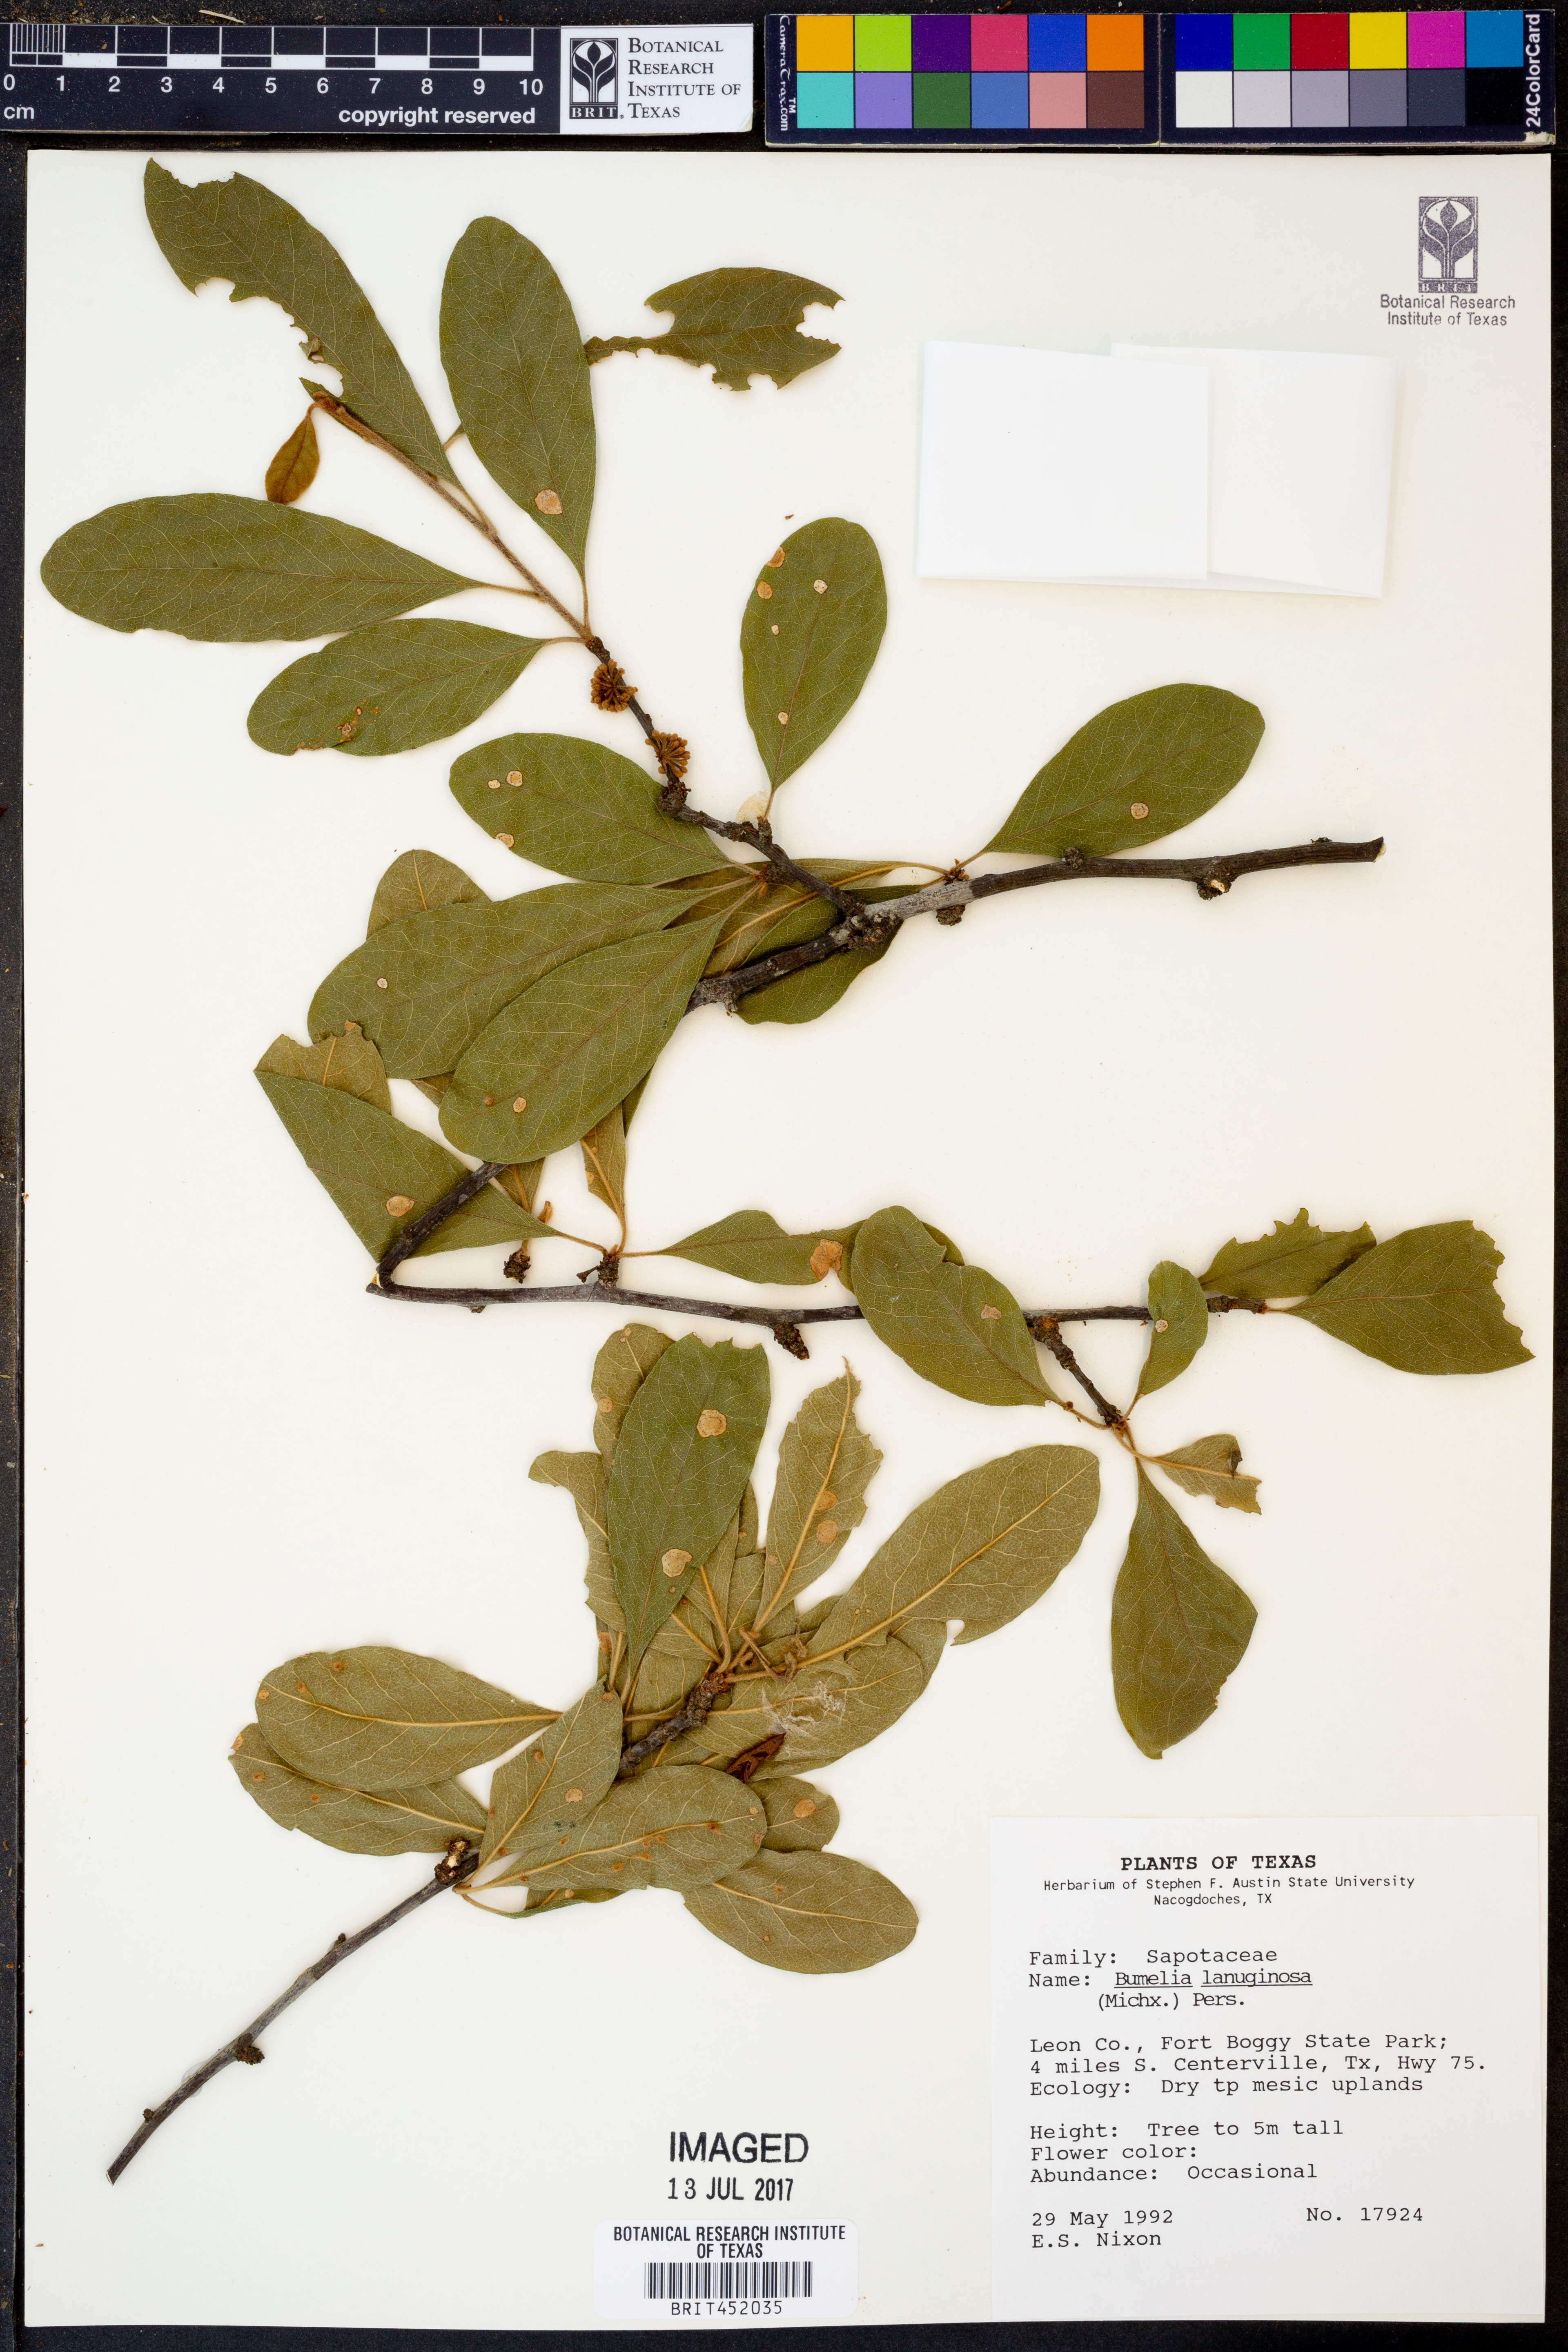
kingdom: Plantae
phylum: Tracheophyta
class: Magnoliopsida
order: Ericales
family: Sapotaceae
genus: Sideroxylon
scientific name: Sideroxylon lanuginosum
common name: Chittamwood
